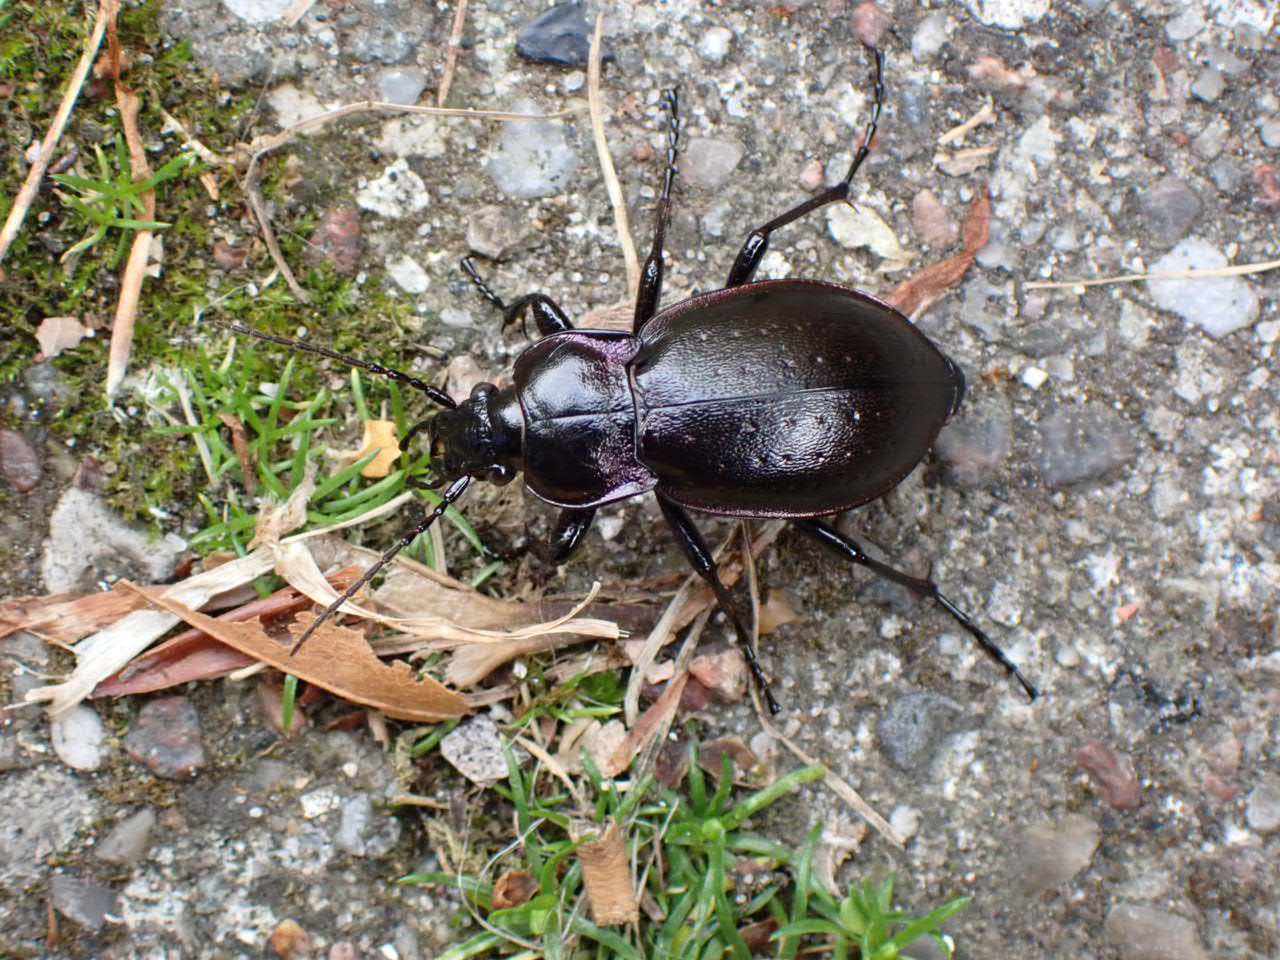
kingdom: Animalia
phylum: Arthropoda
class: Insecta
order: Coleoptera
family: Carabidae
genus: Carabus
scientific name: Carabus nemoralis
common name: Kratløber
